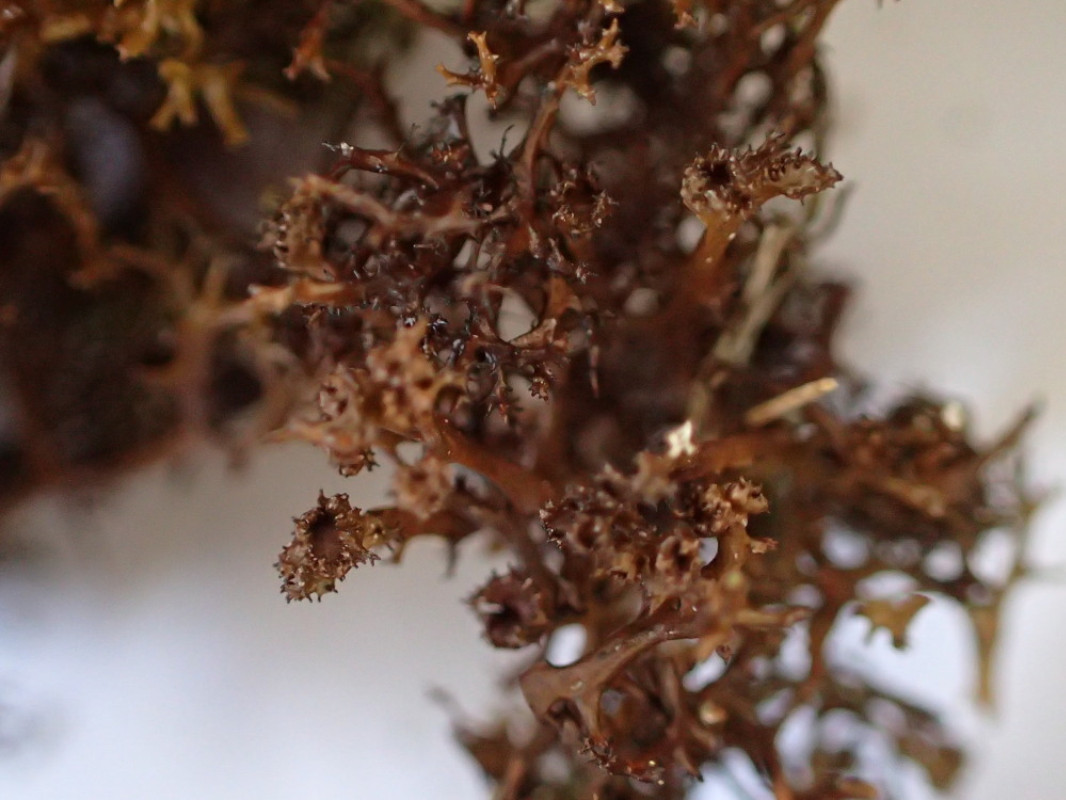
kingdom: Fungi
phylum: Ascomycota
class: Lecanoromycetes
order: Lecanorales
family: Parmeliaceae
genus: Cetraria
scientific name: Cetraria muricata
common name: tue-tjørnelav
